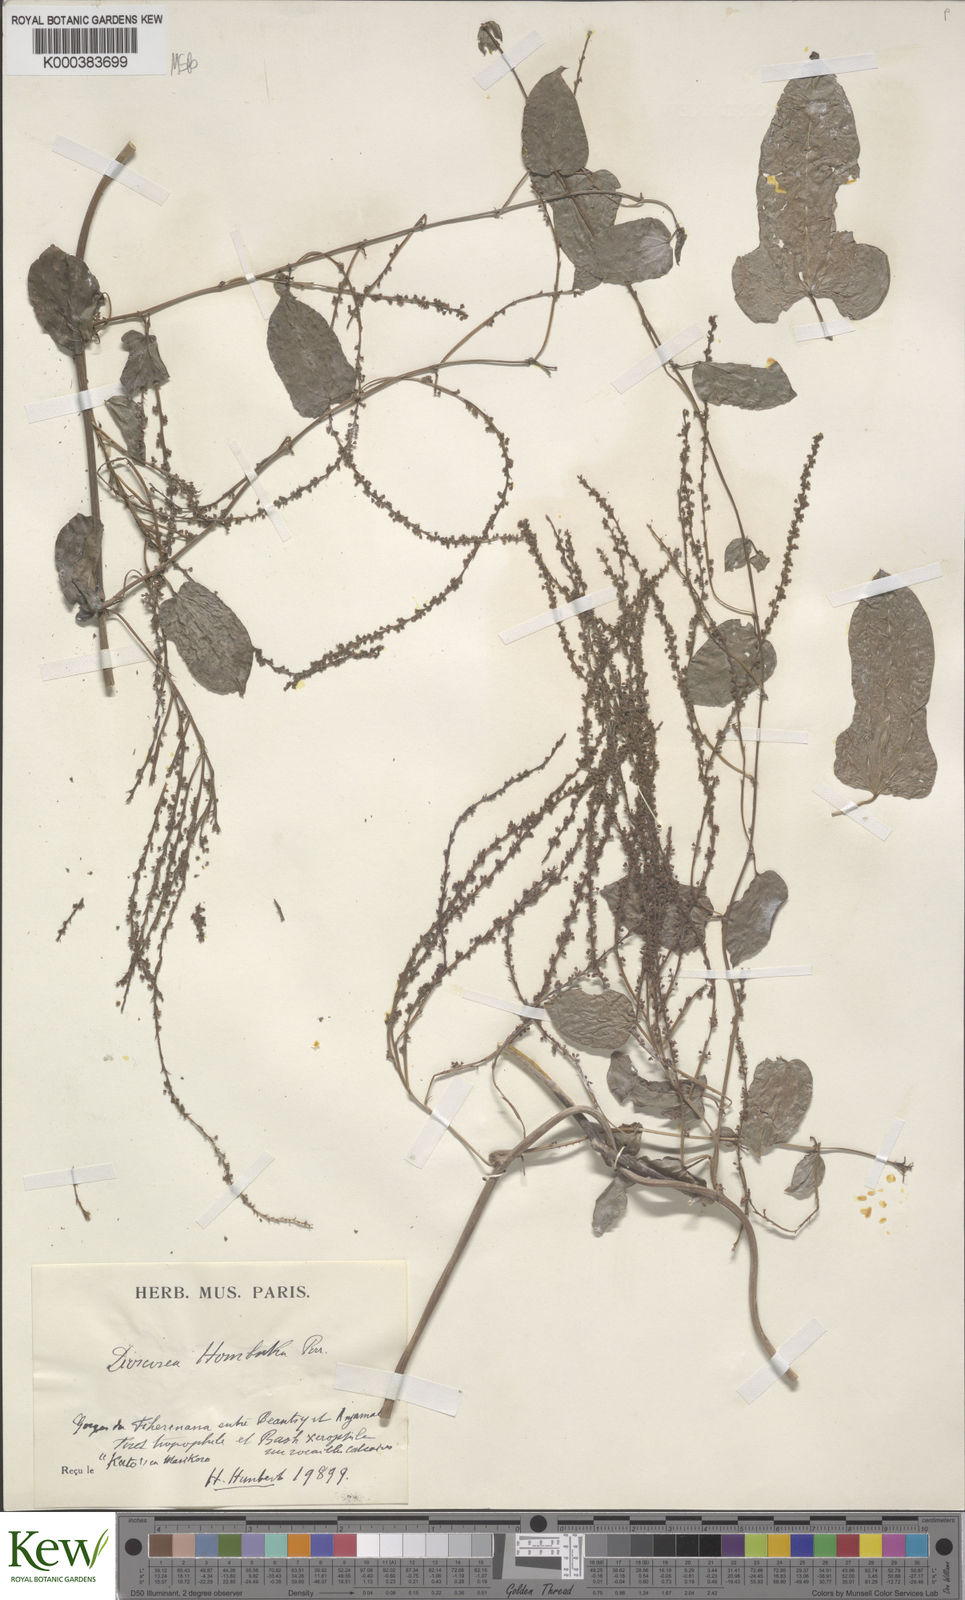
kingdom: Plantae
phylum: Tracheophyta
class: Liliopsida
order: Dioscoreales
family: Dioscoreaceae
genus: Dioscorea
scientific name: Dioscorea
